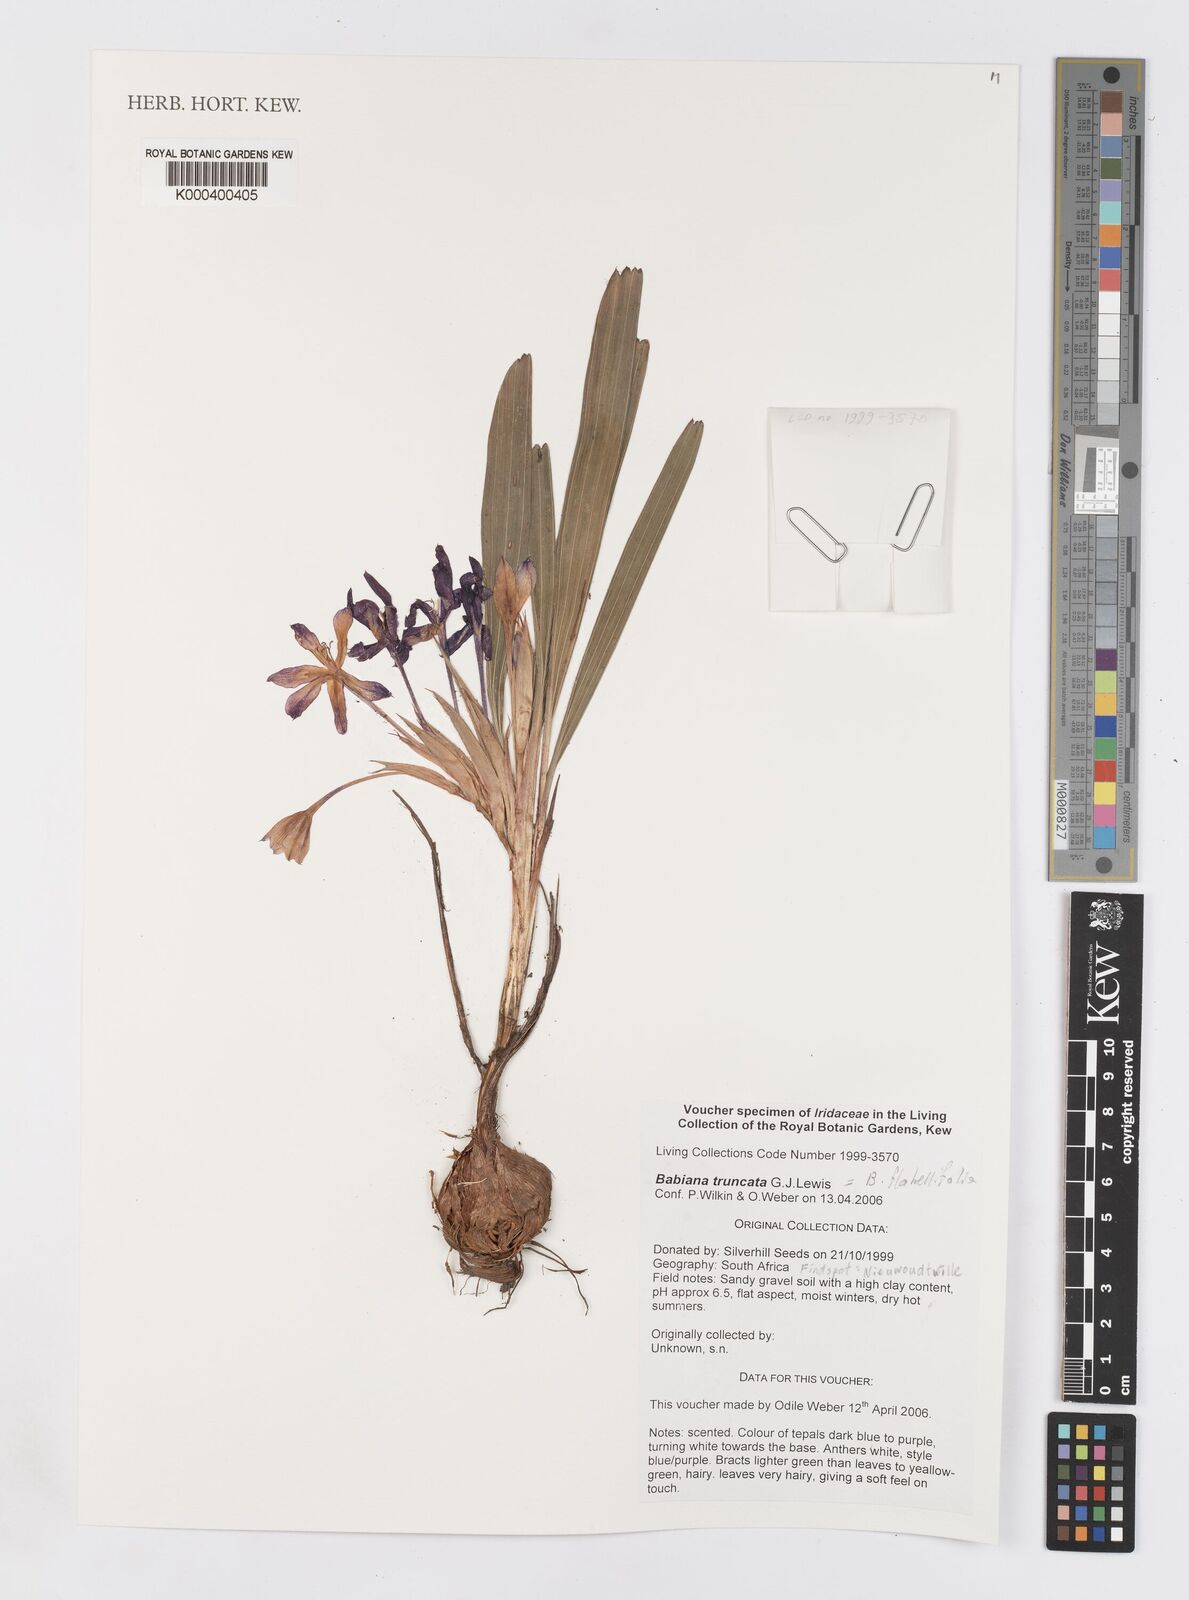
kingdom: Plantae
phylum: Tracheophyta
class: Liliopsida
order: Asparagales
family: Iridaceae
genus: Babiana
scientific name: Babiana flabellifolia
